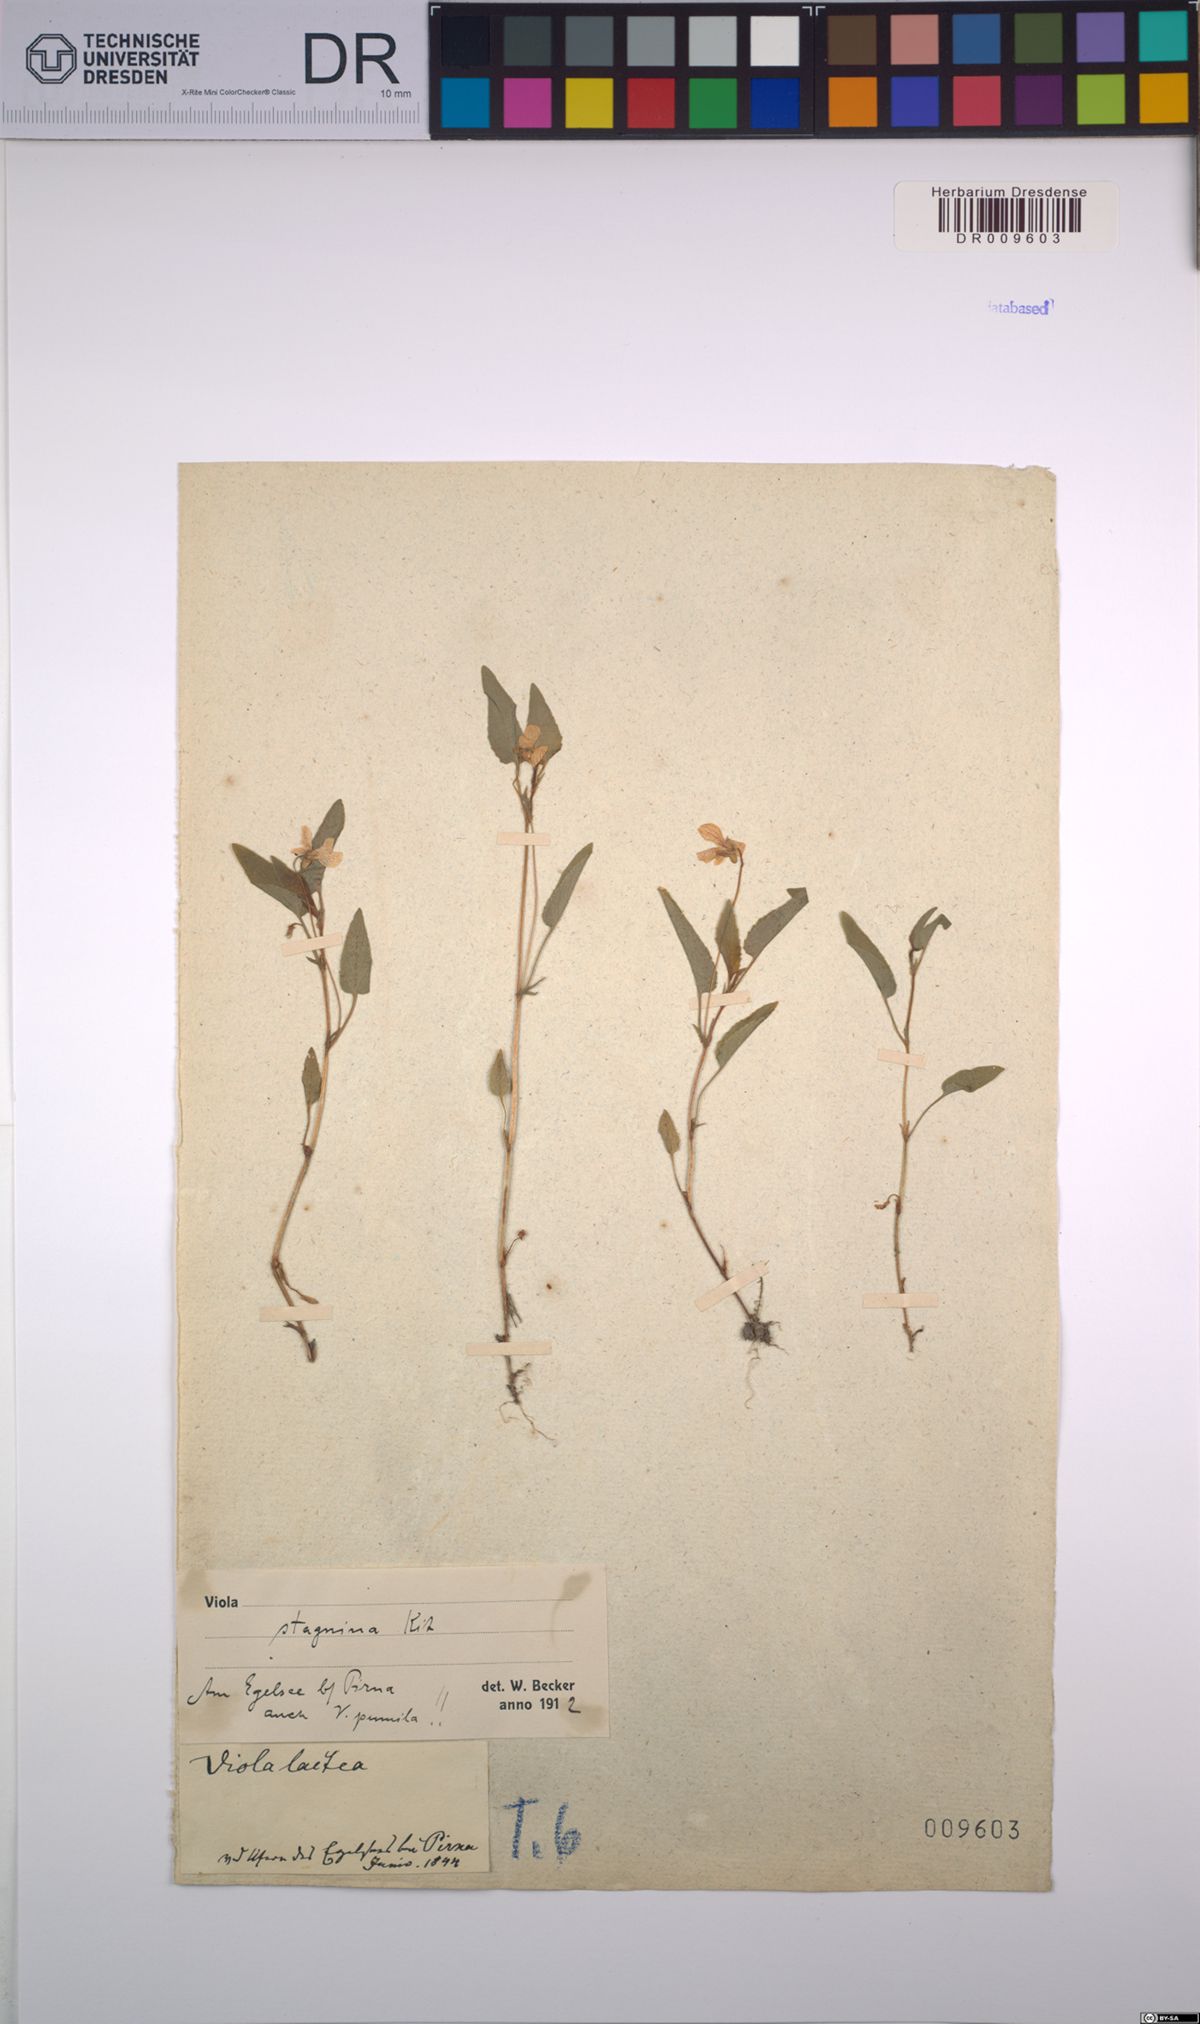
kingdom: Plantae
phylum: Tracheophyta
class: Magnoliopsida
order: Malpighiales
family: Violaceae
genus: Viola
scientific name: Viola stagnina
